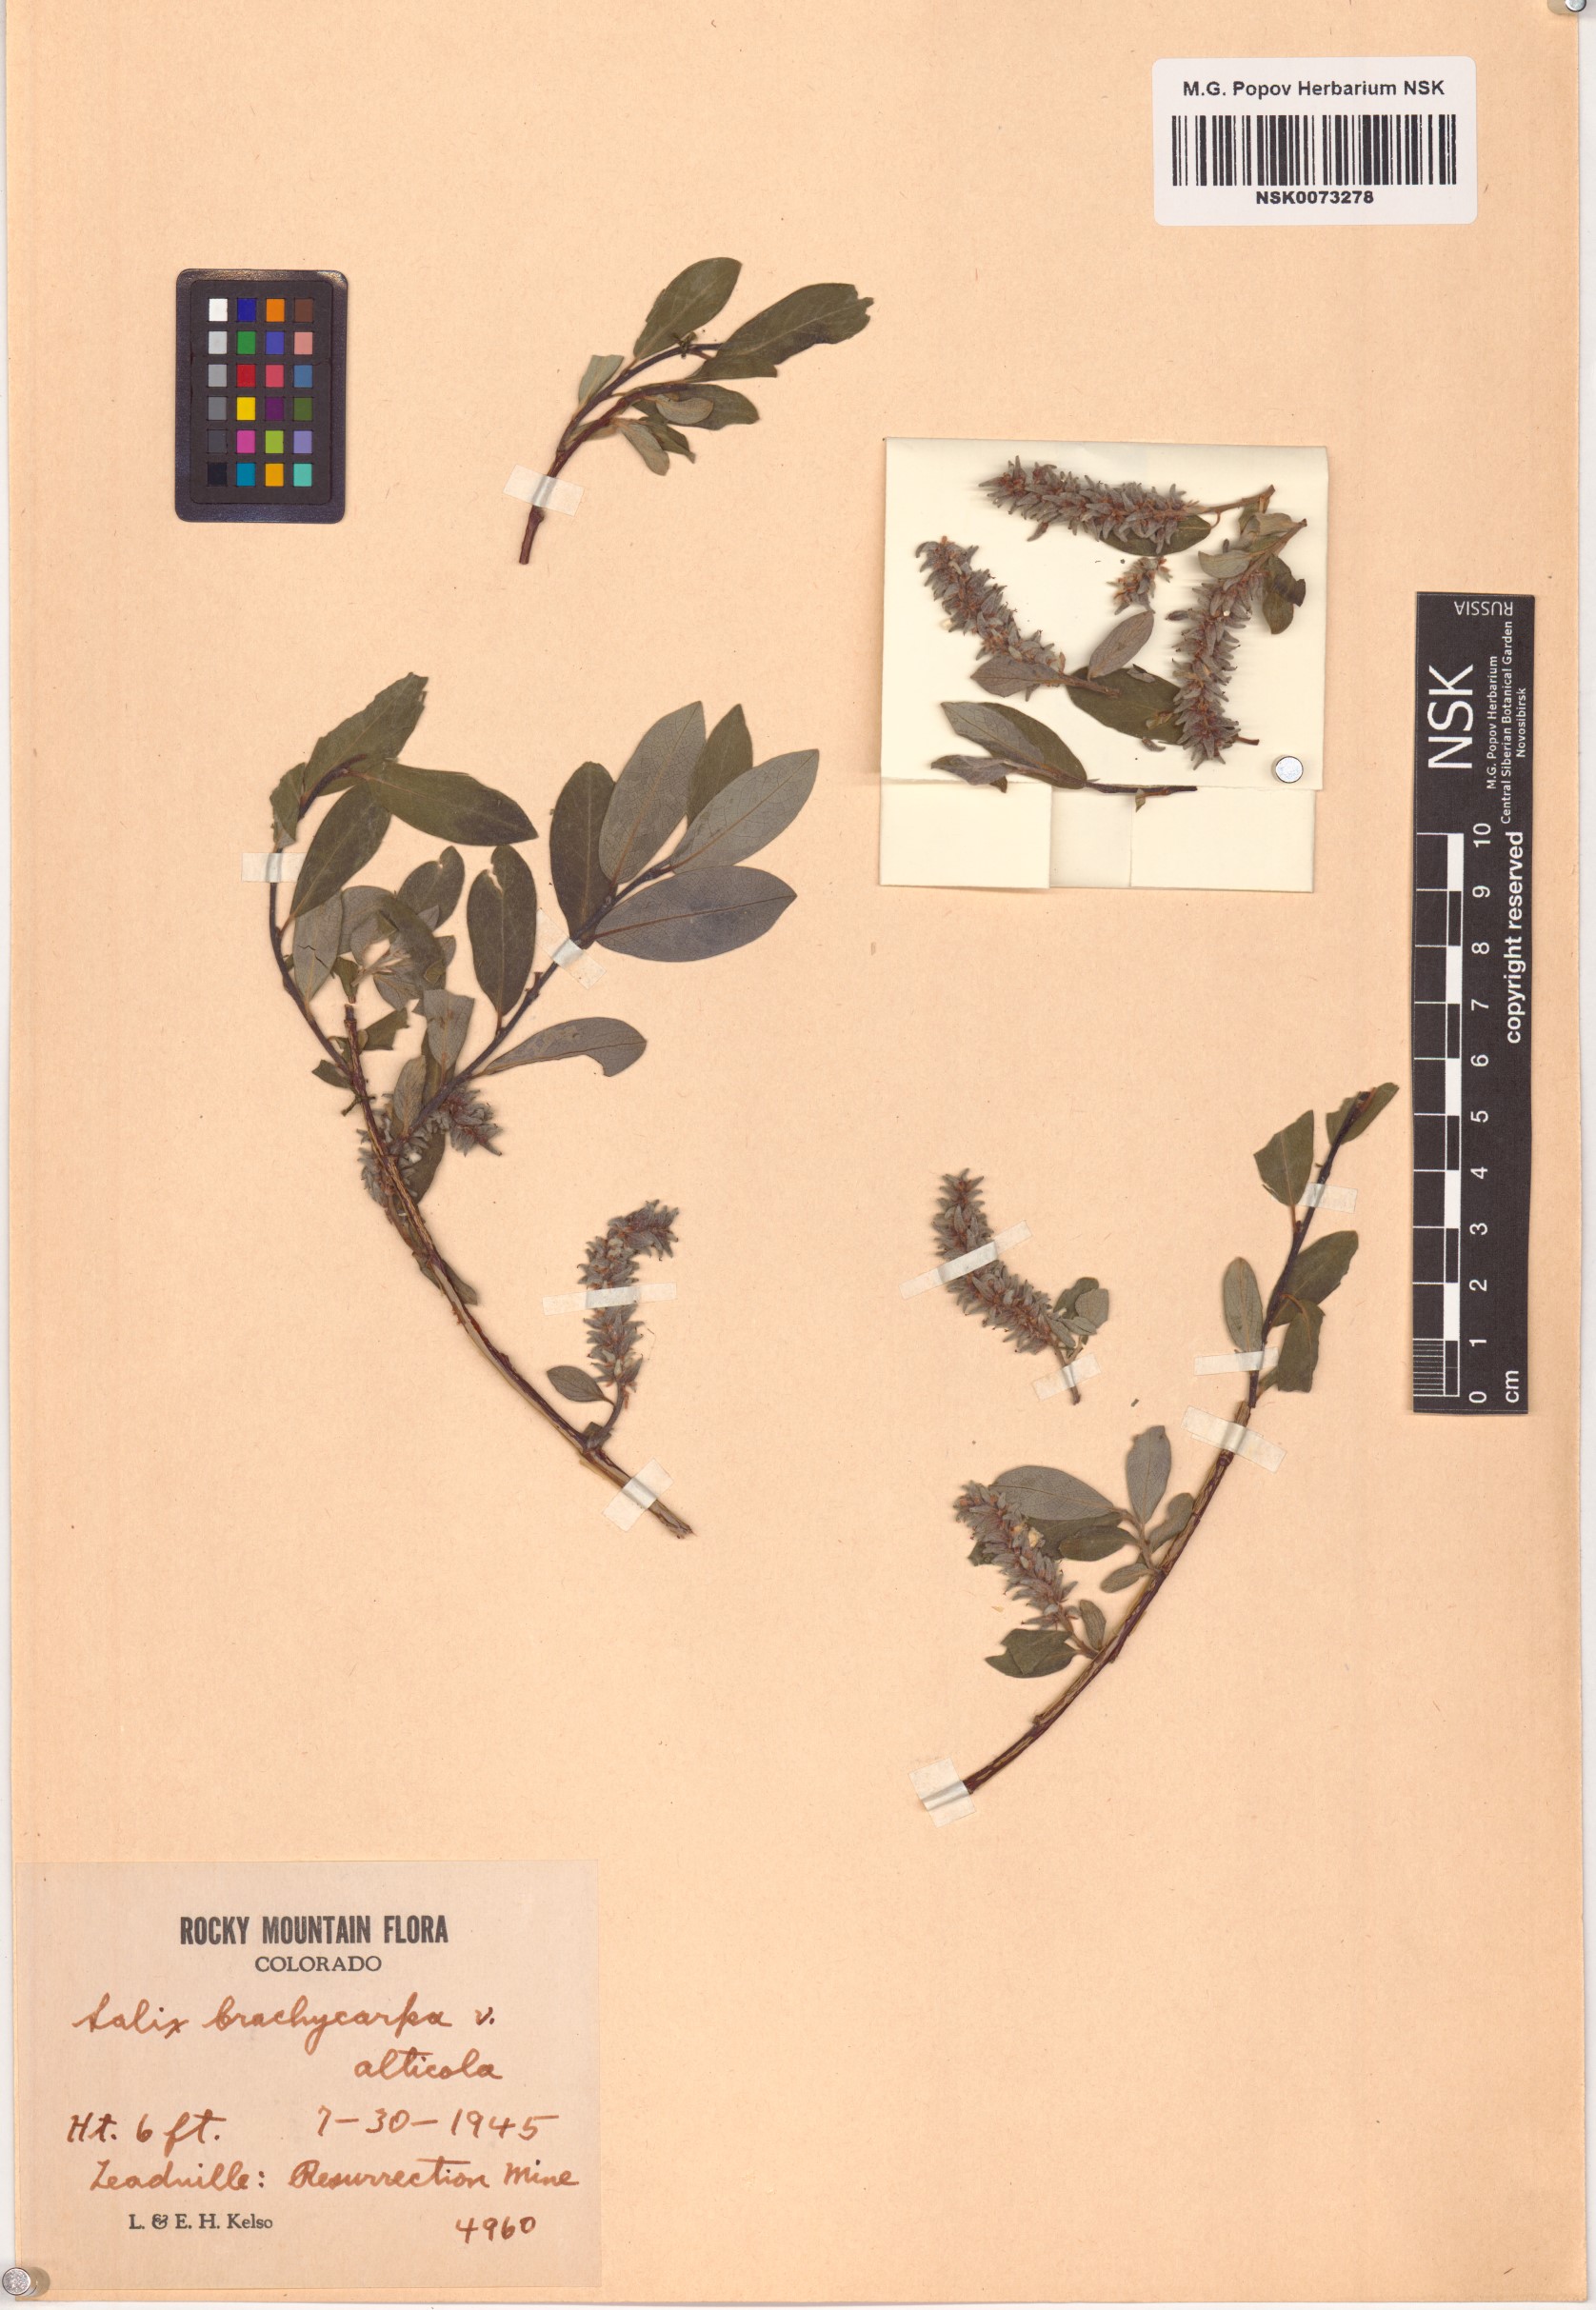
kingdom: Plantae
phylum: Tracheophyta
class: Magnoliopsida
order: Malpighiales
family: Salicaceae
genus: Salix
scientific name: Salix brachycarpa
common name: Barren-ground willow
